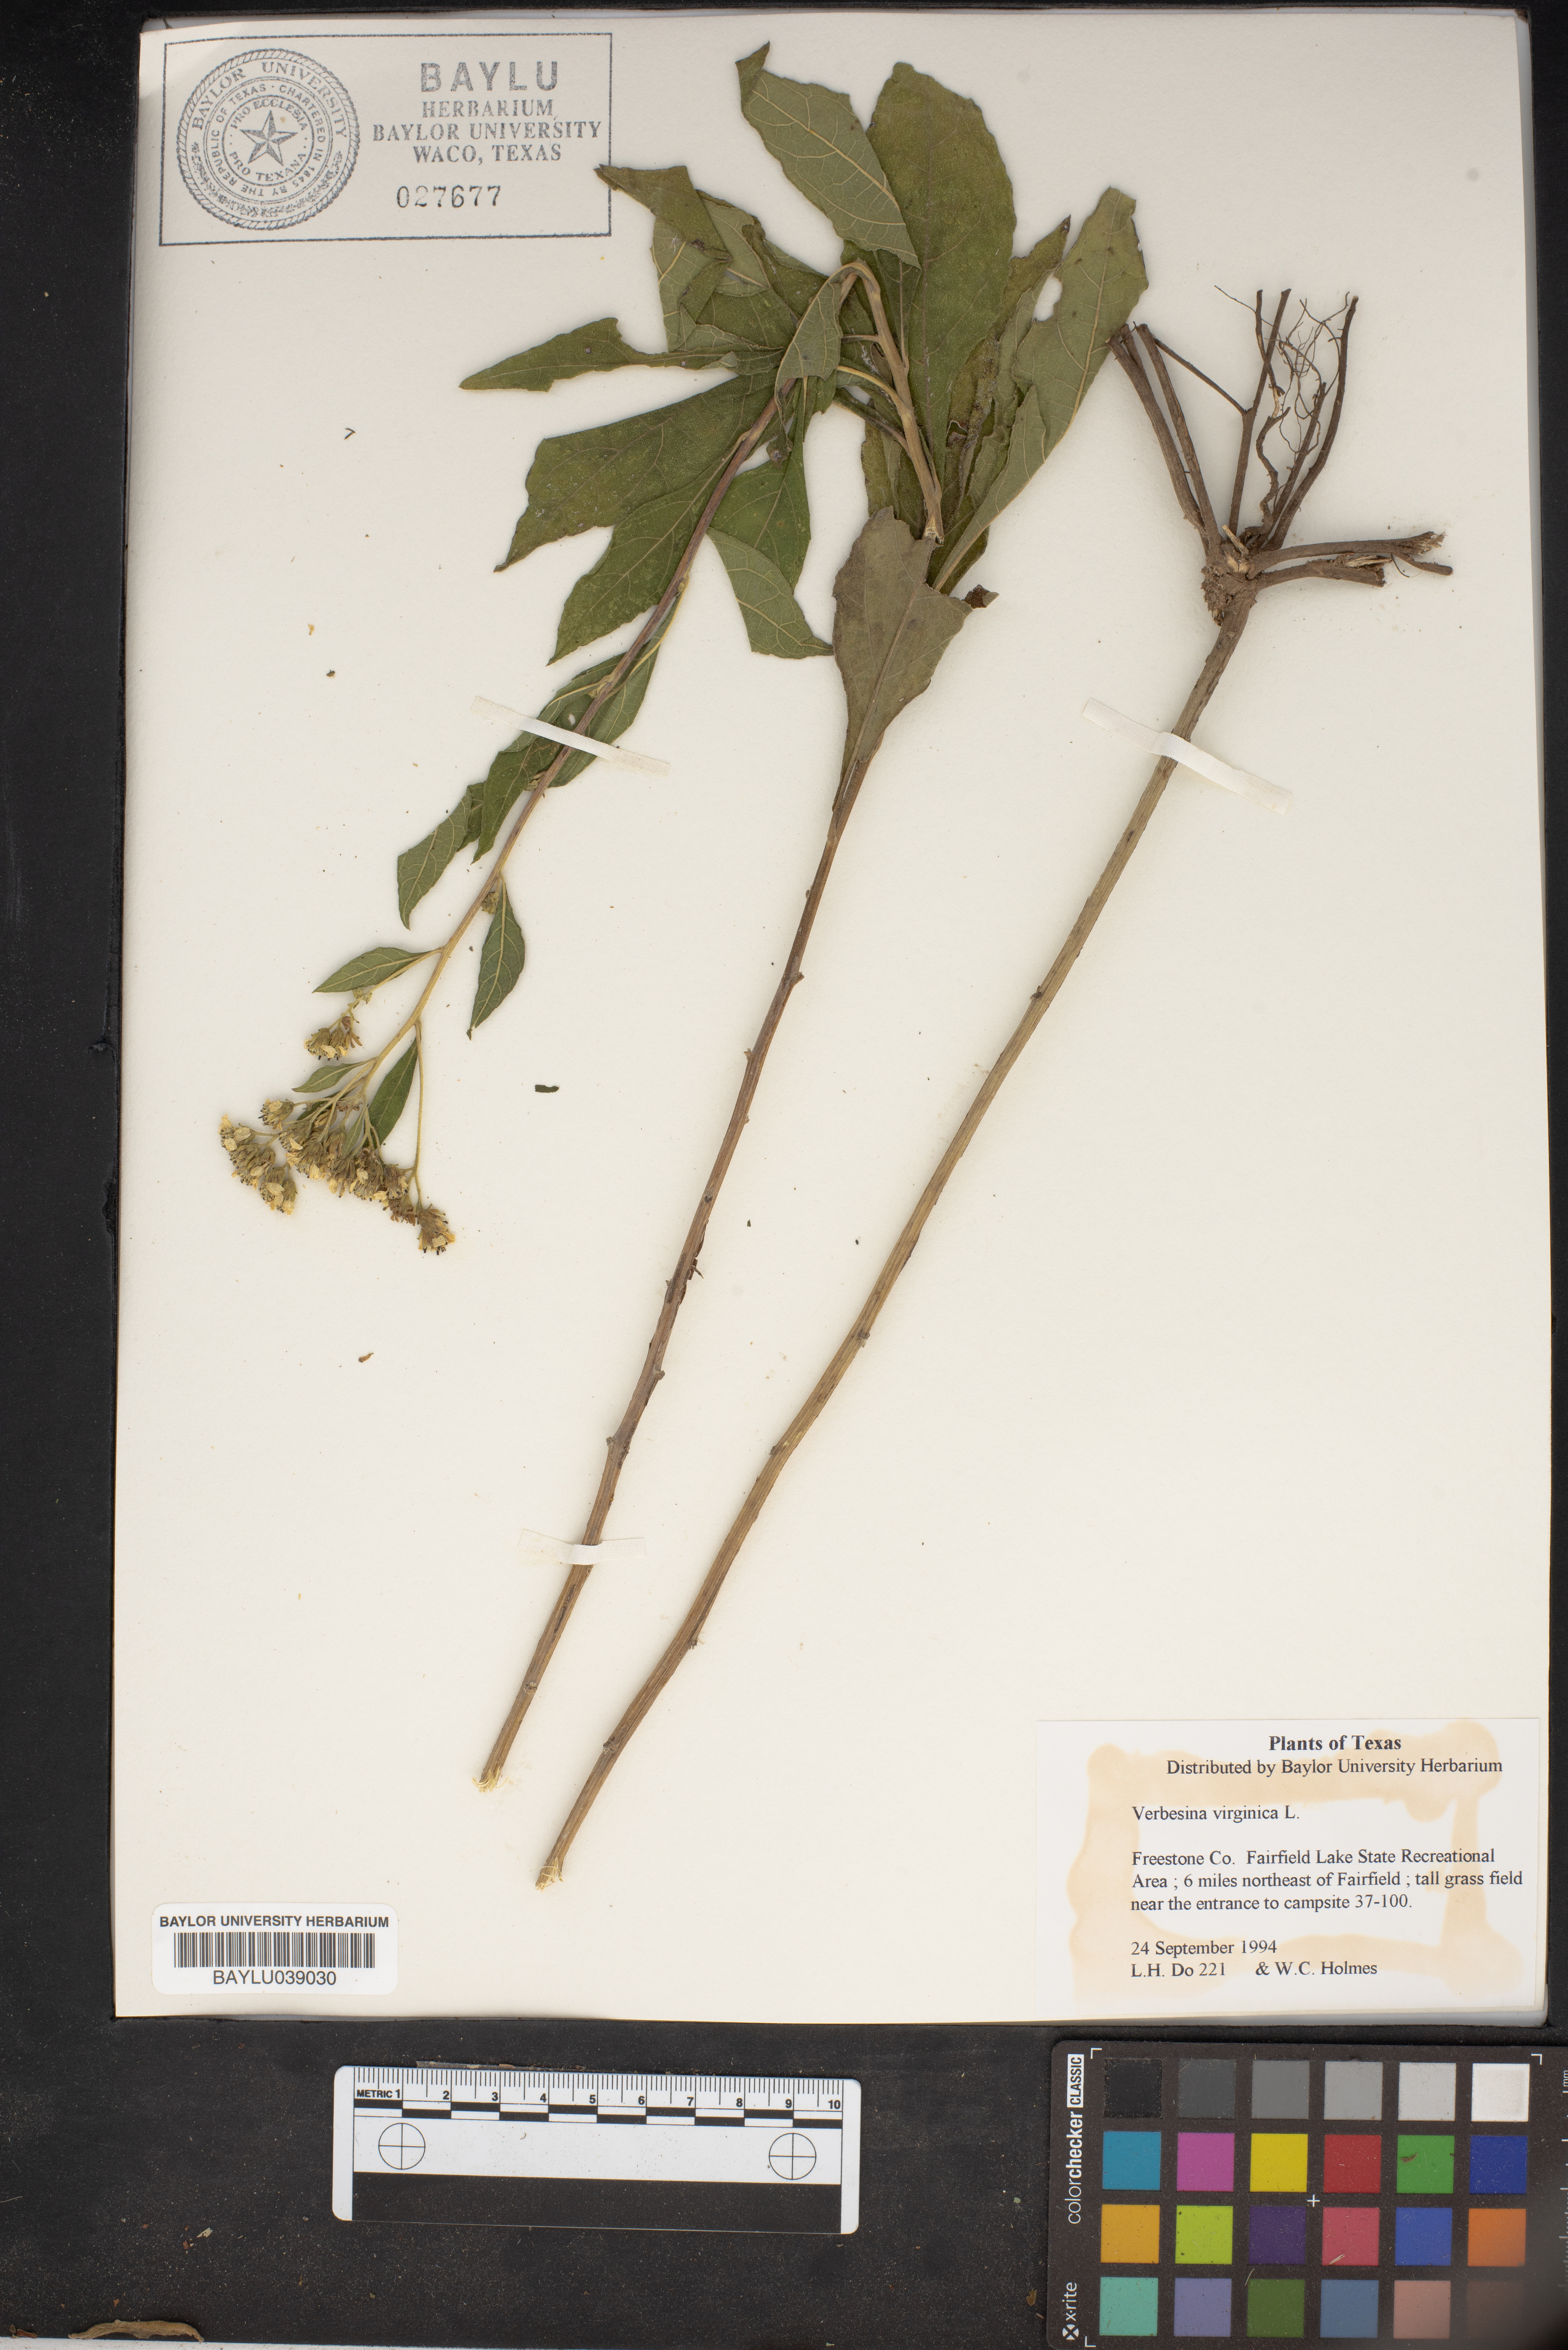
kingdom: Plantae
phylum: Tracheophyta
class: Magnoliopsida
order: Asterales
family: Asteraceae
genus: Verbesina
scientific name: Verbesina virginica
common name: Frostweed
